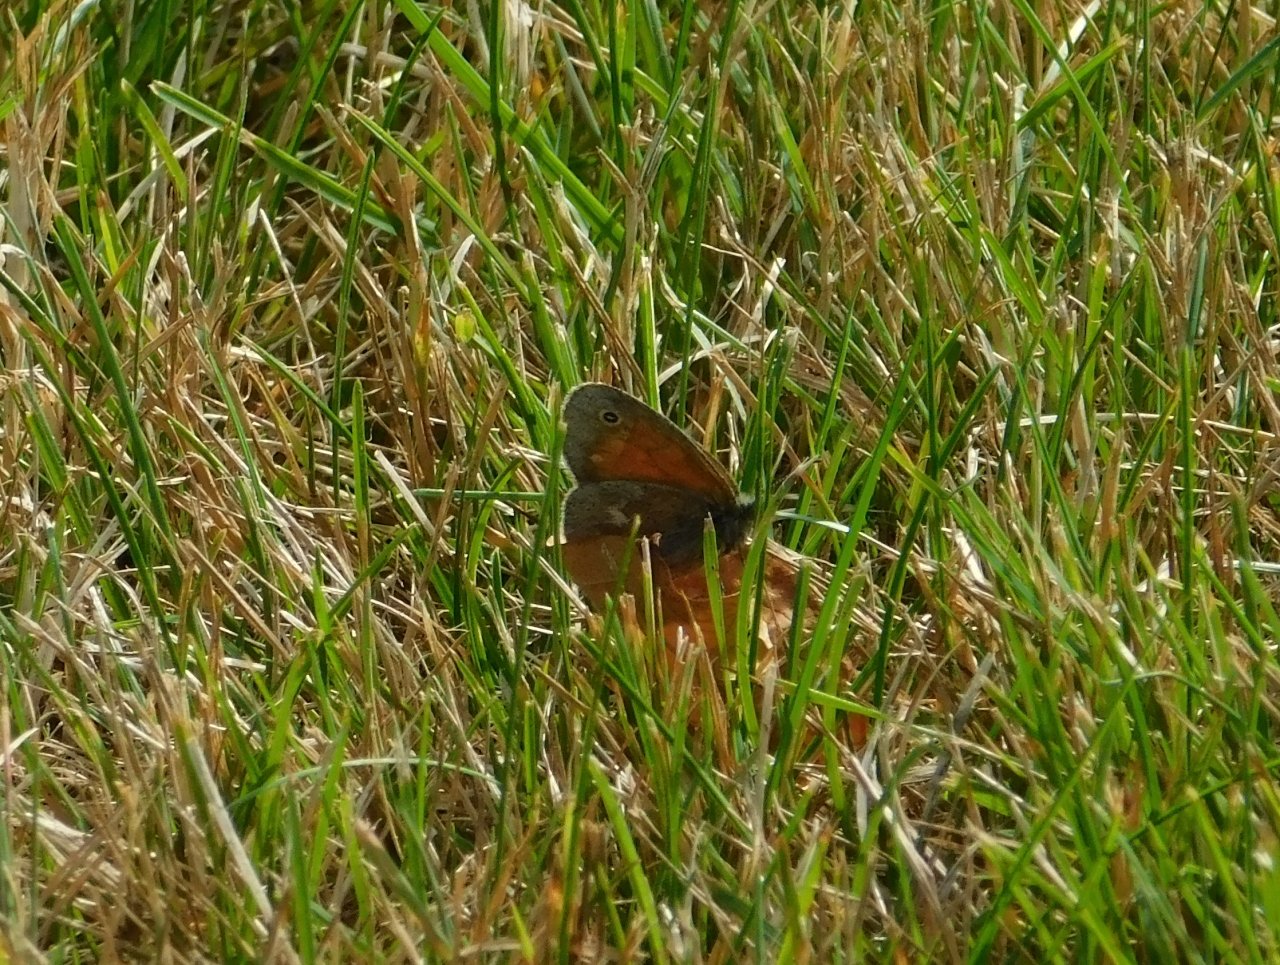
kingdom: Animalia
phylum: Arthropoda
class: Insecta
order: Lepidoptera
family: Nymphalidae
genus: Coenonympha
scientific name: Coenonympha tullia
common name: Large Heath
